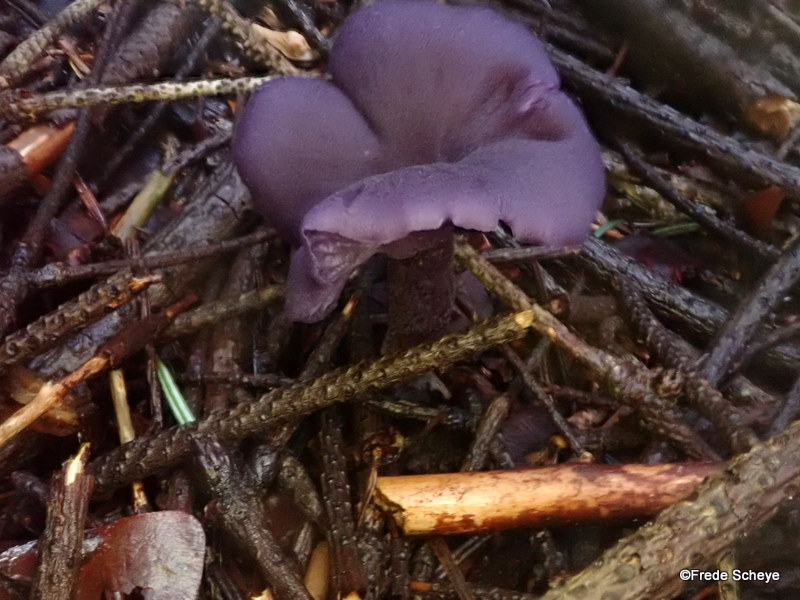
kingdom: Fungi
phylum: Basidiomycota
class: Agaricomycetes
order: Agaricales
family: Hydnangiaceae
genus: Laccaria
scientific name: Laccaria amethystina
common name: violet ametysthat
